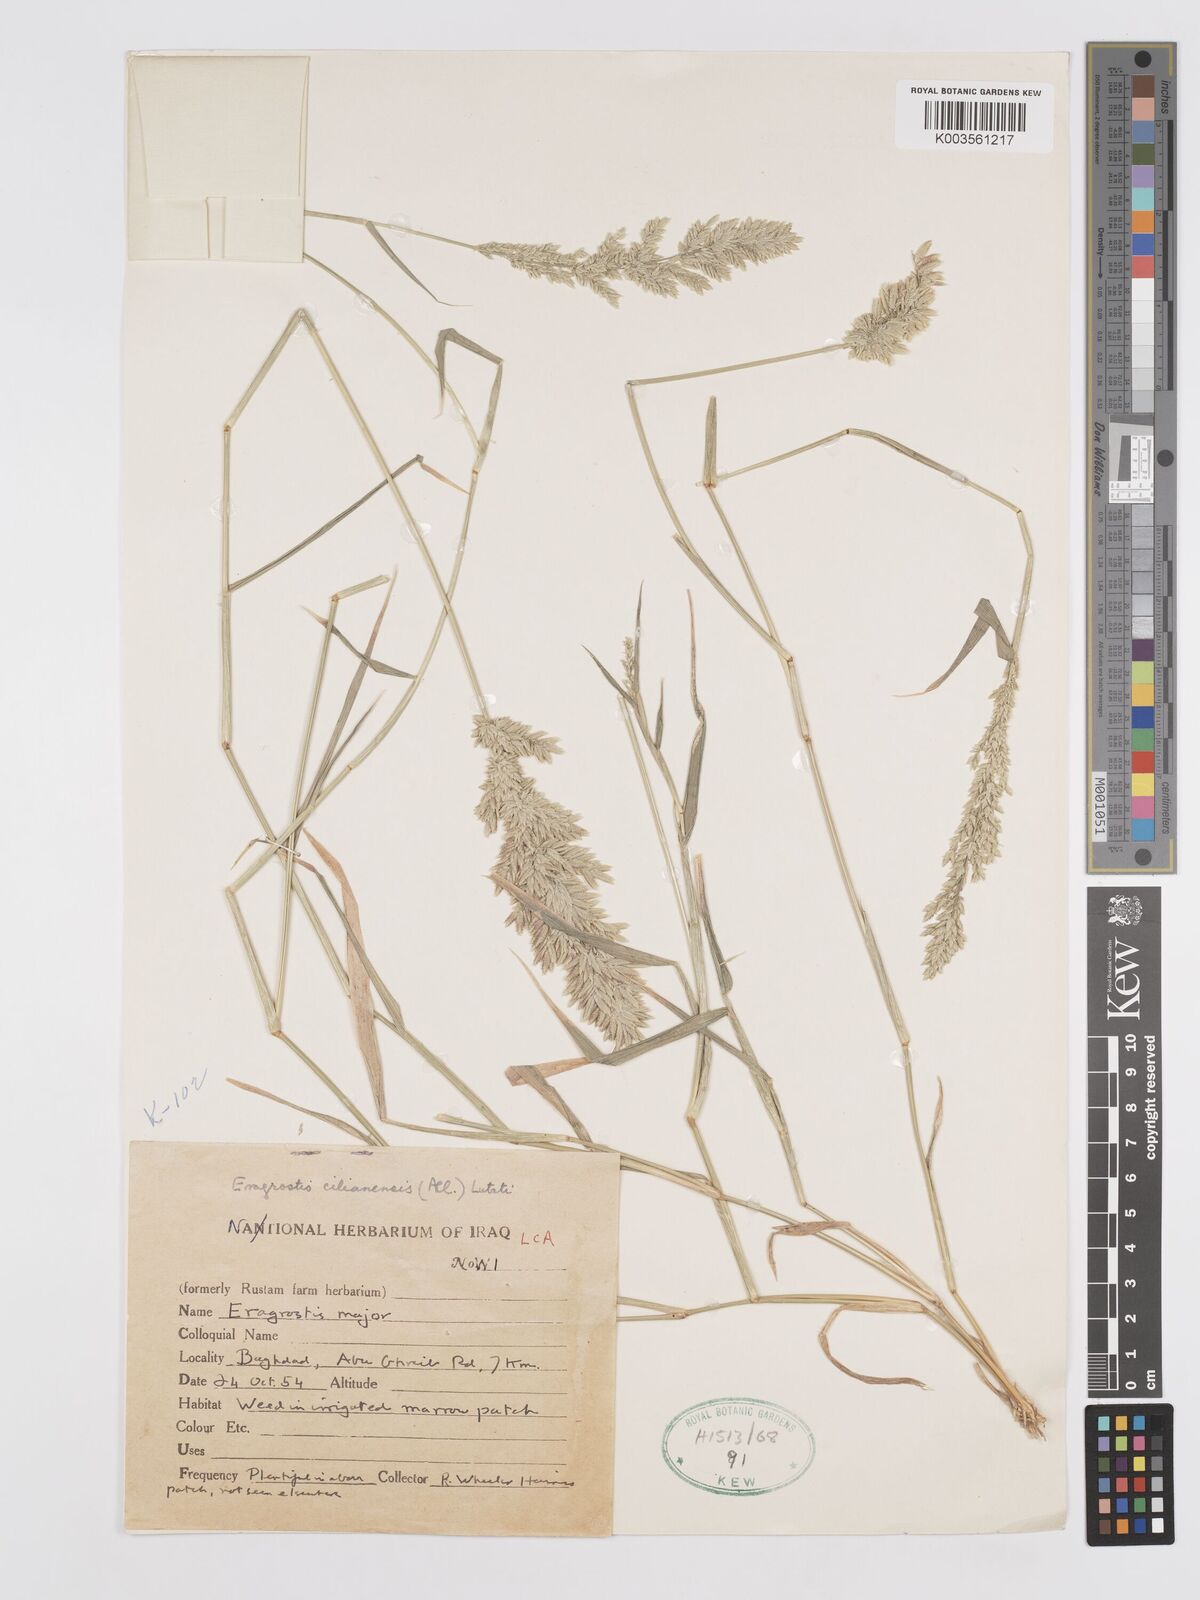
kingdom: Plantae
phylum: Tracheophyta
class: Liliopsida
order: Poales
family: Poaceae
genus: Eragrostis
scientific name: Eragrostis cilianensis
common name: Stinkgrass
